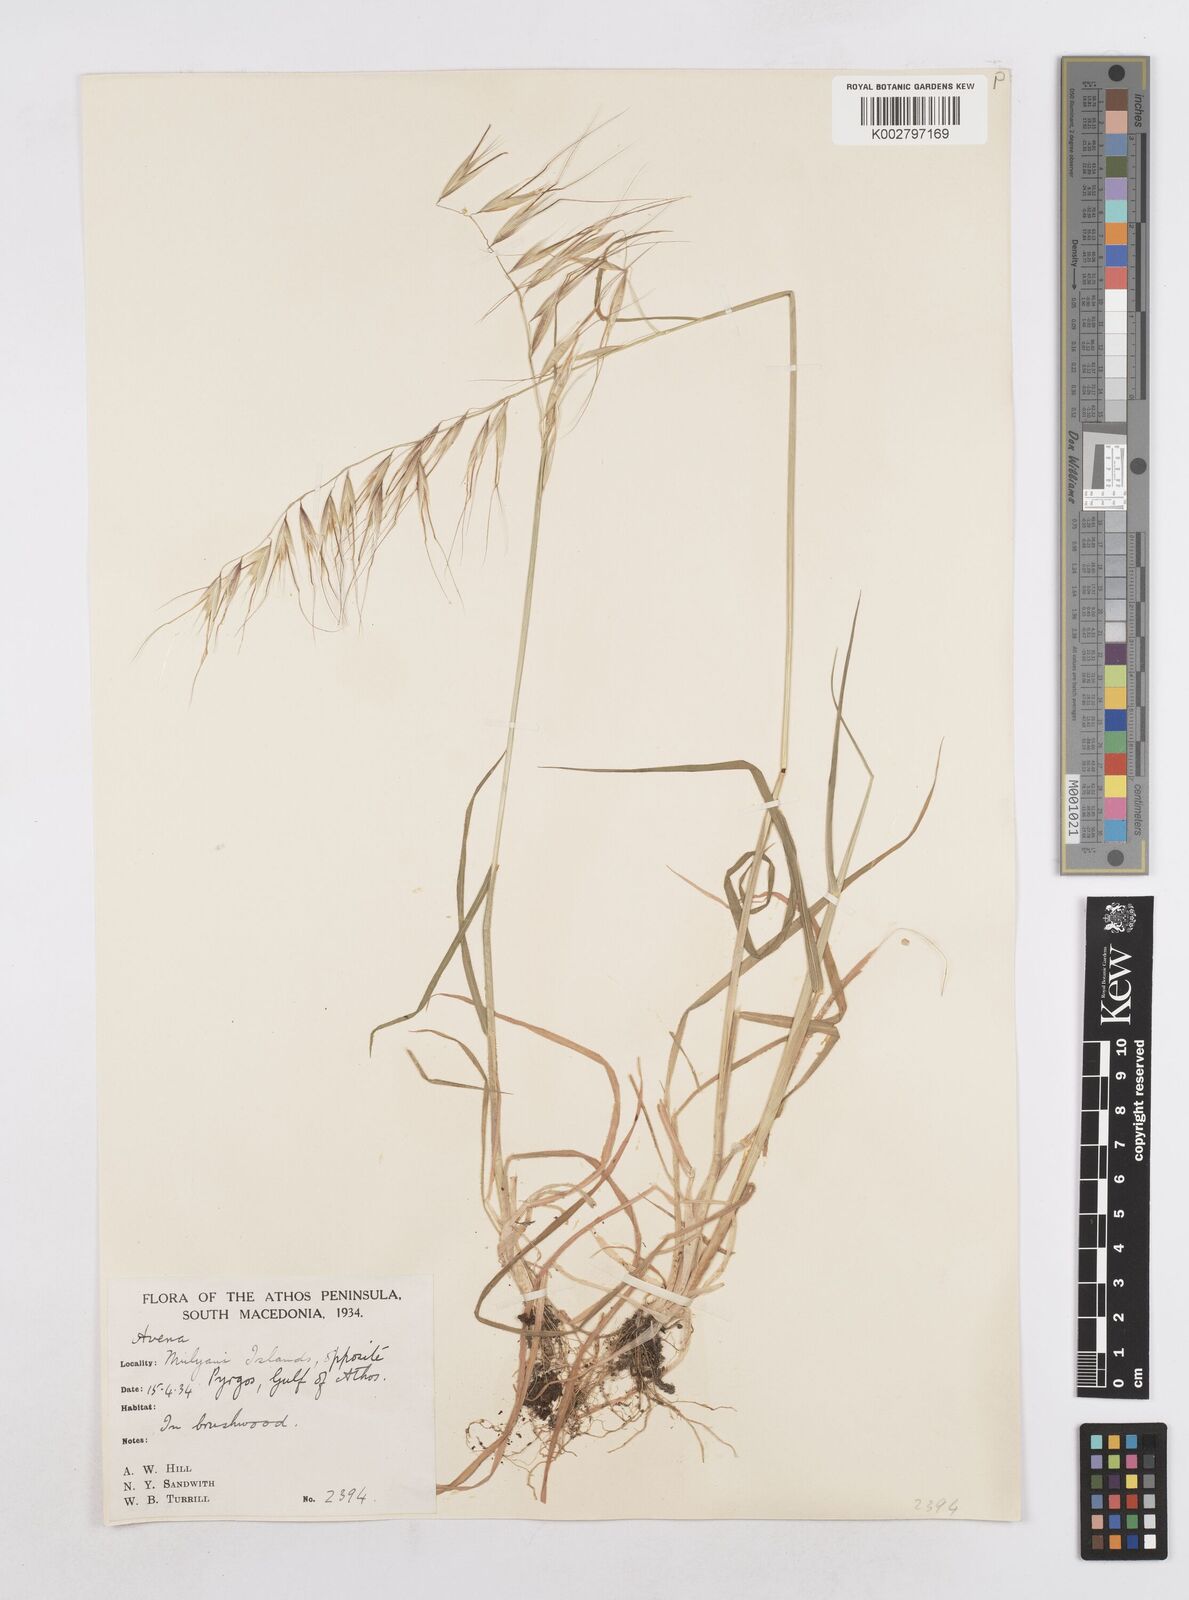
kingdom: Plantae
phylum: Tracheophyta
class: Liliopsida
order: Poales
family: Poaceae
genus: Avena
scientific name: Avena
